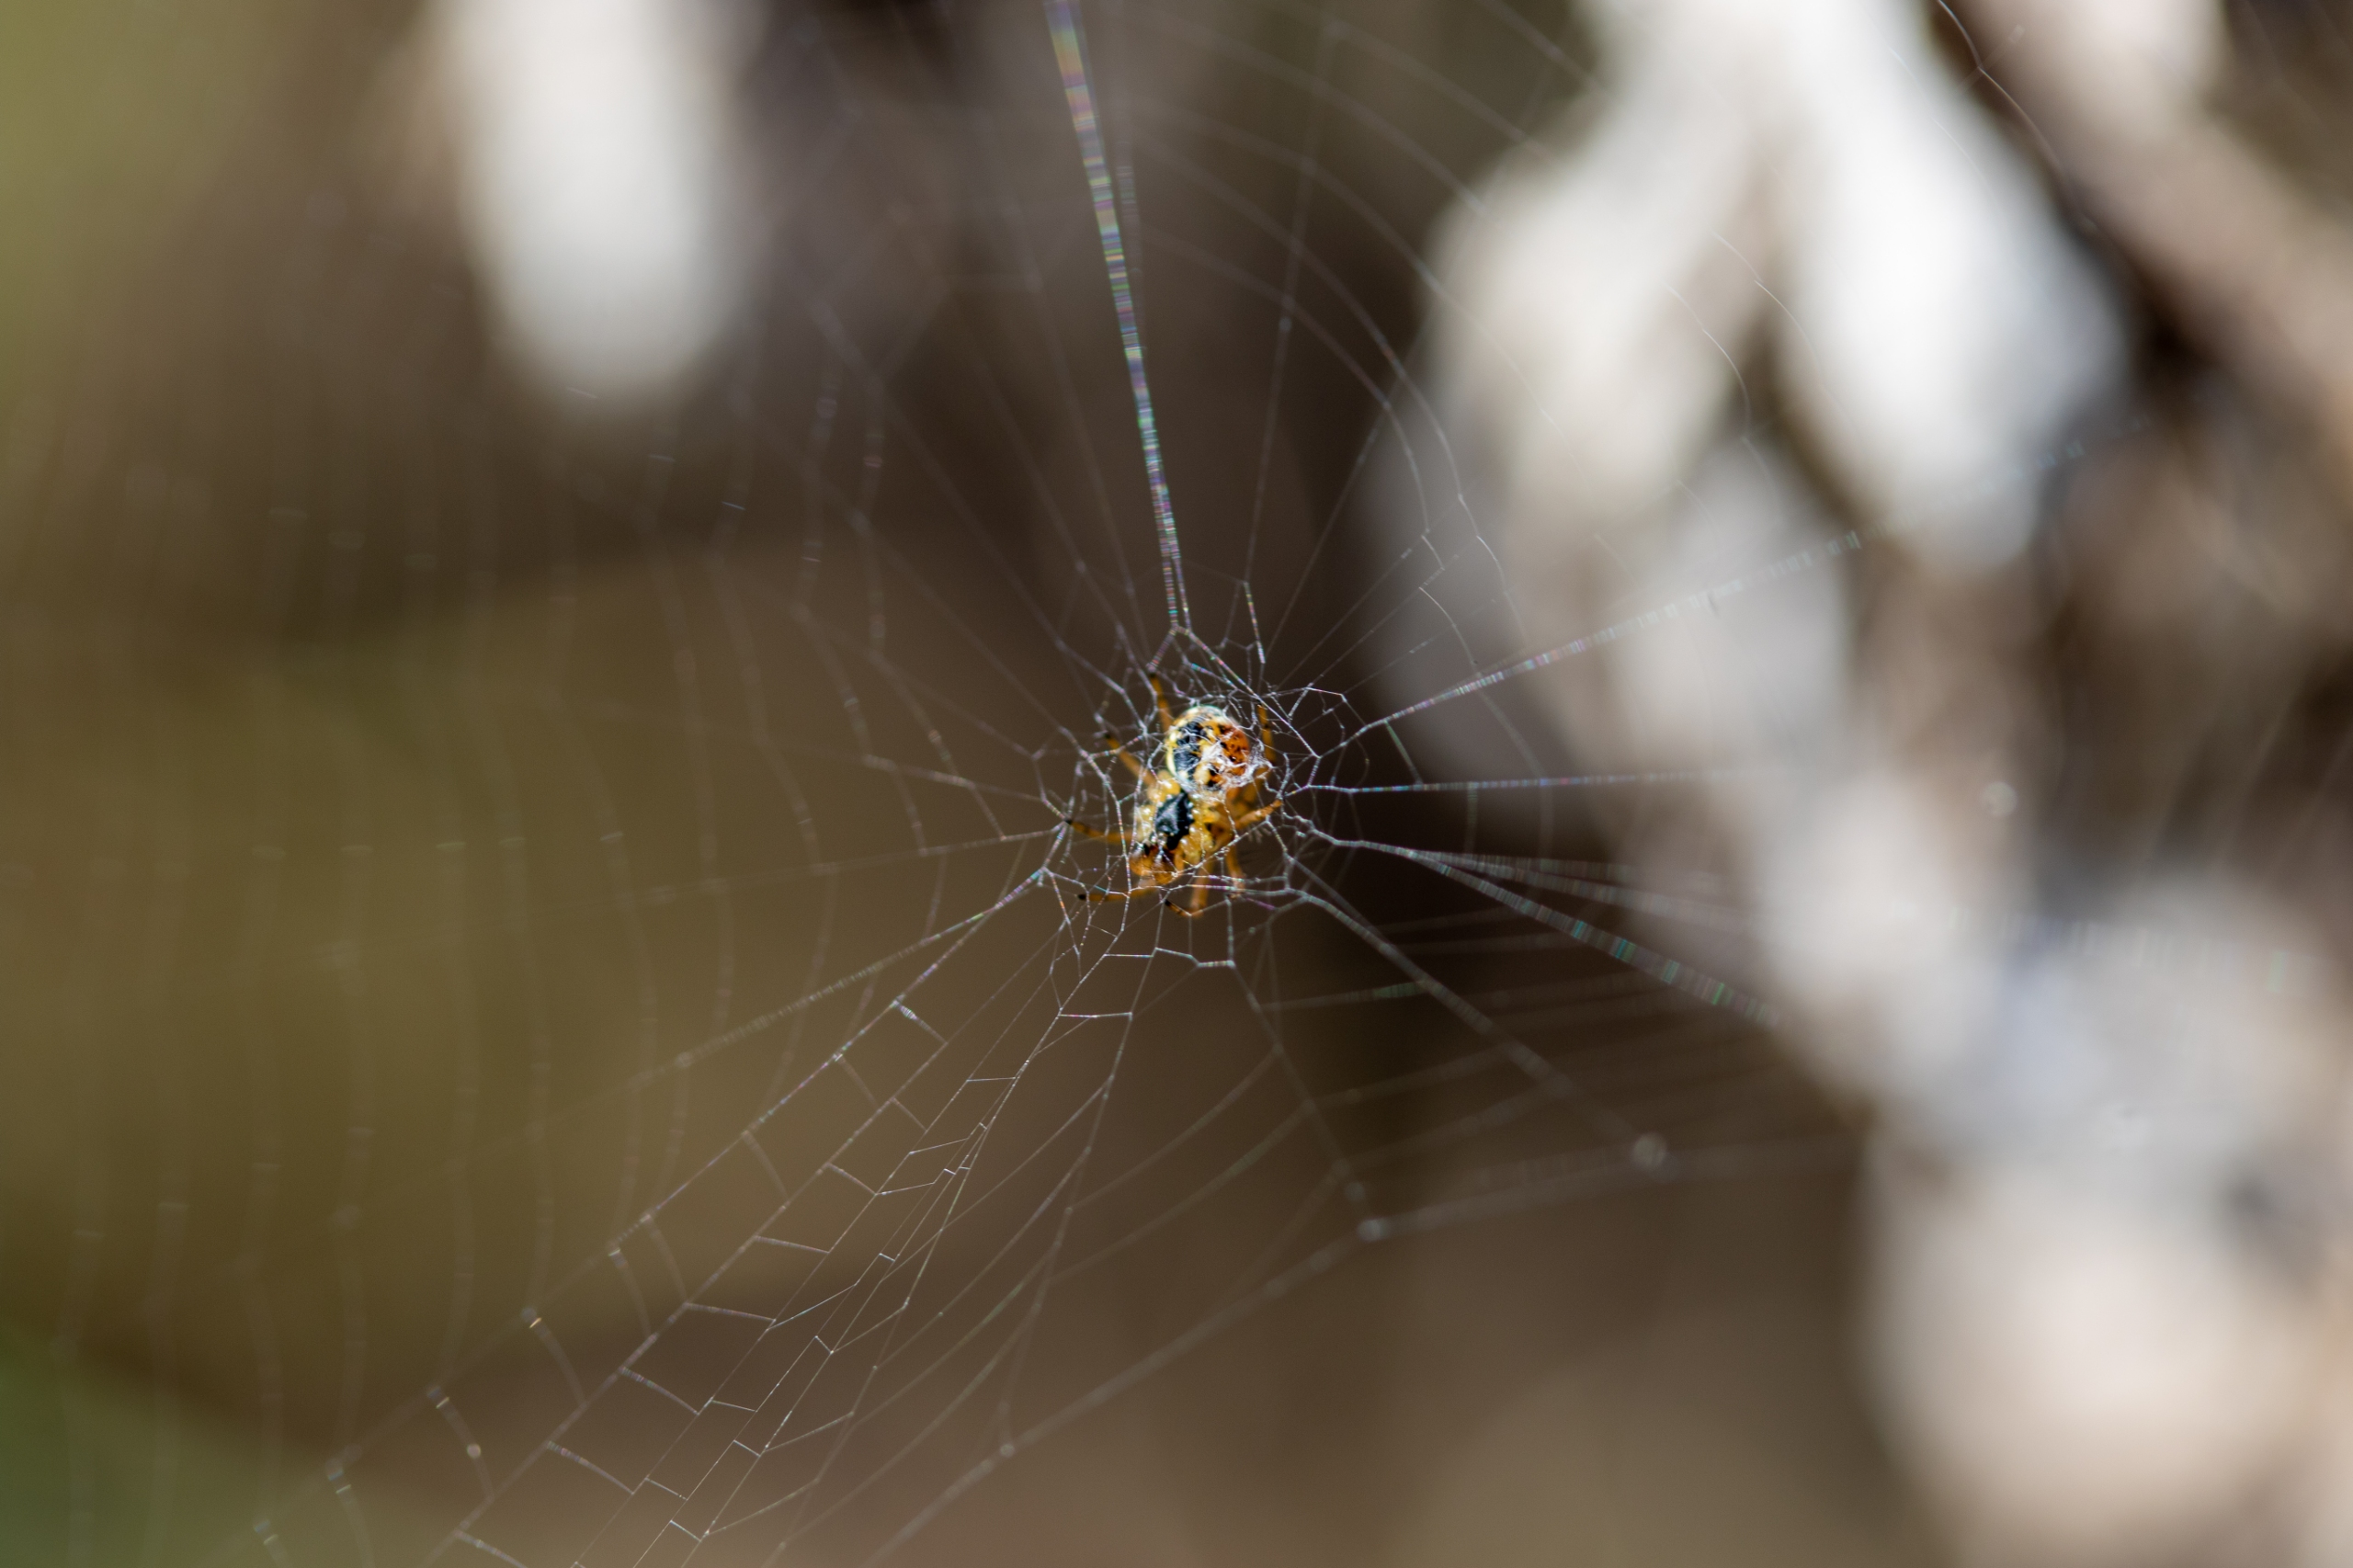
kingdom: Animalia
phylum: Arthropoda
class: Arachnida
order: Araneae
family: Araneidae
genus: Mangora
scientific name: Mangora acalypha
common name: Sortstribet hedehjulspinder
